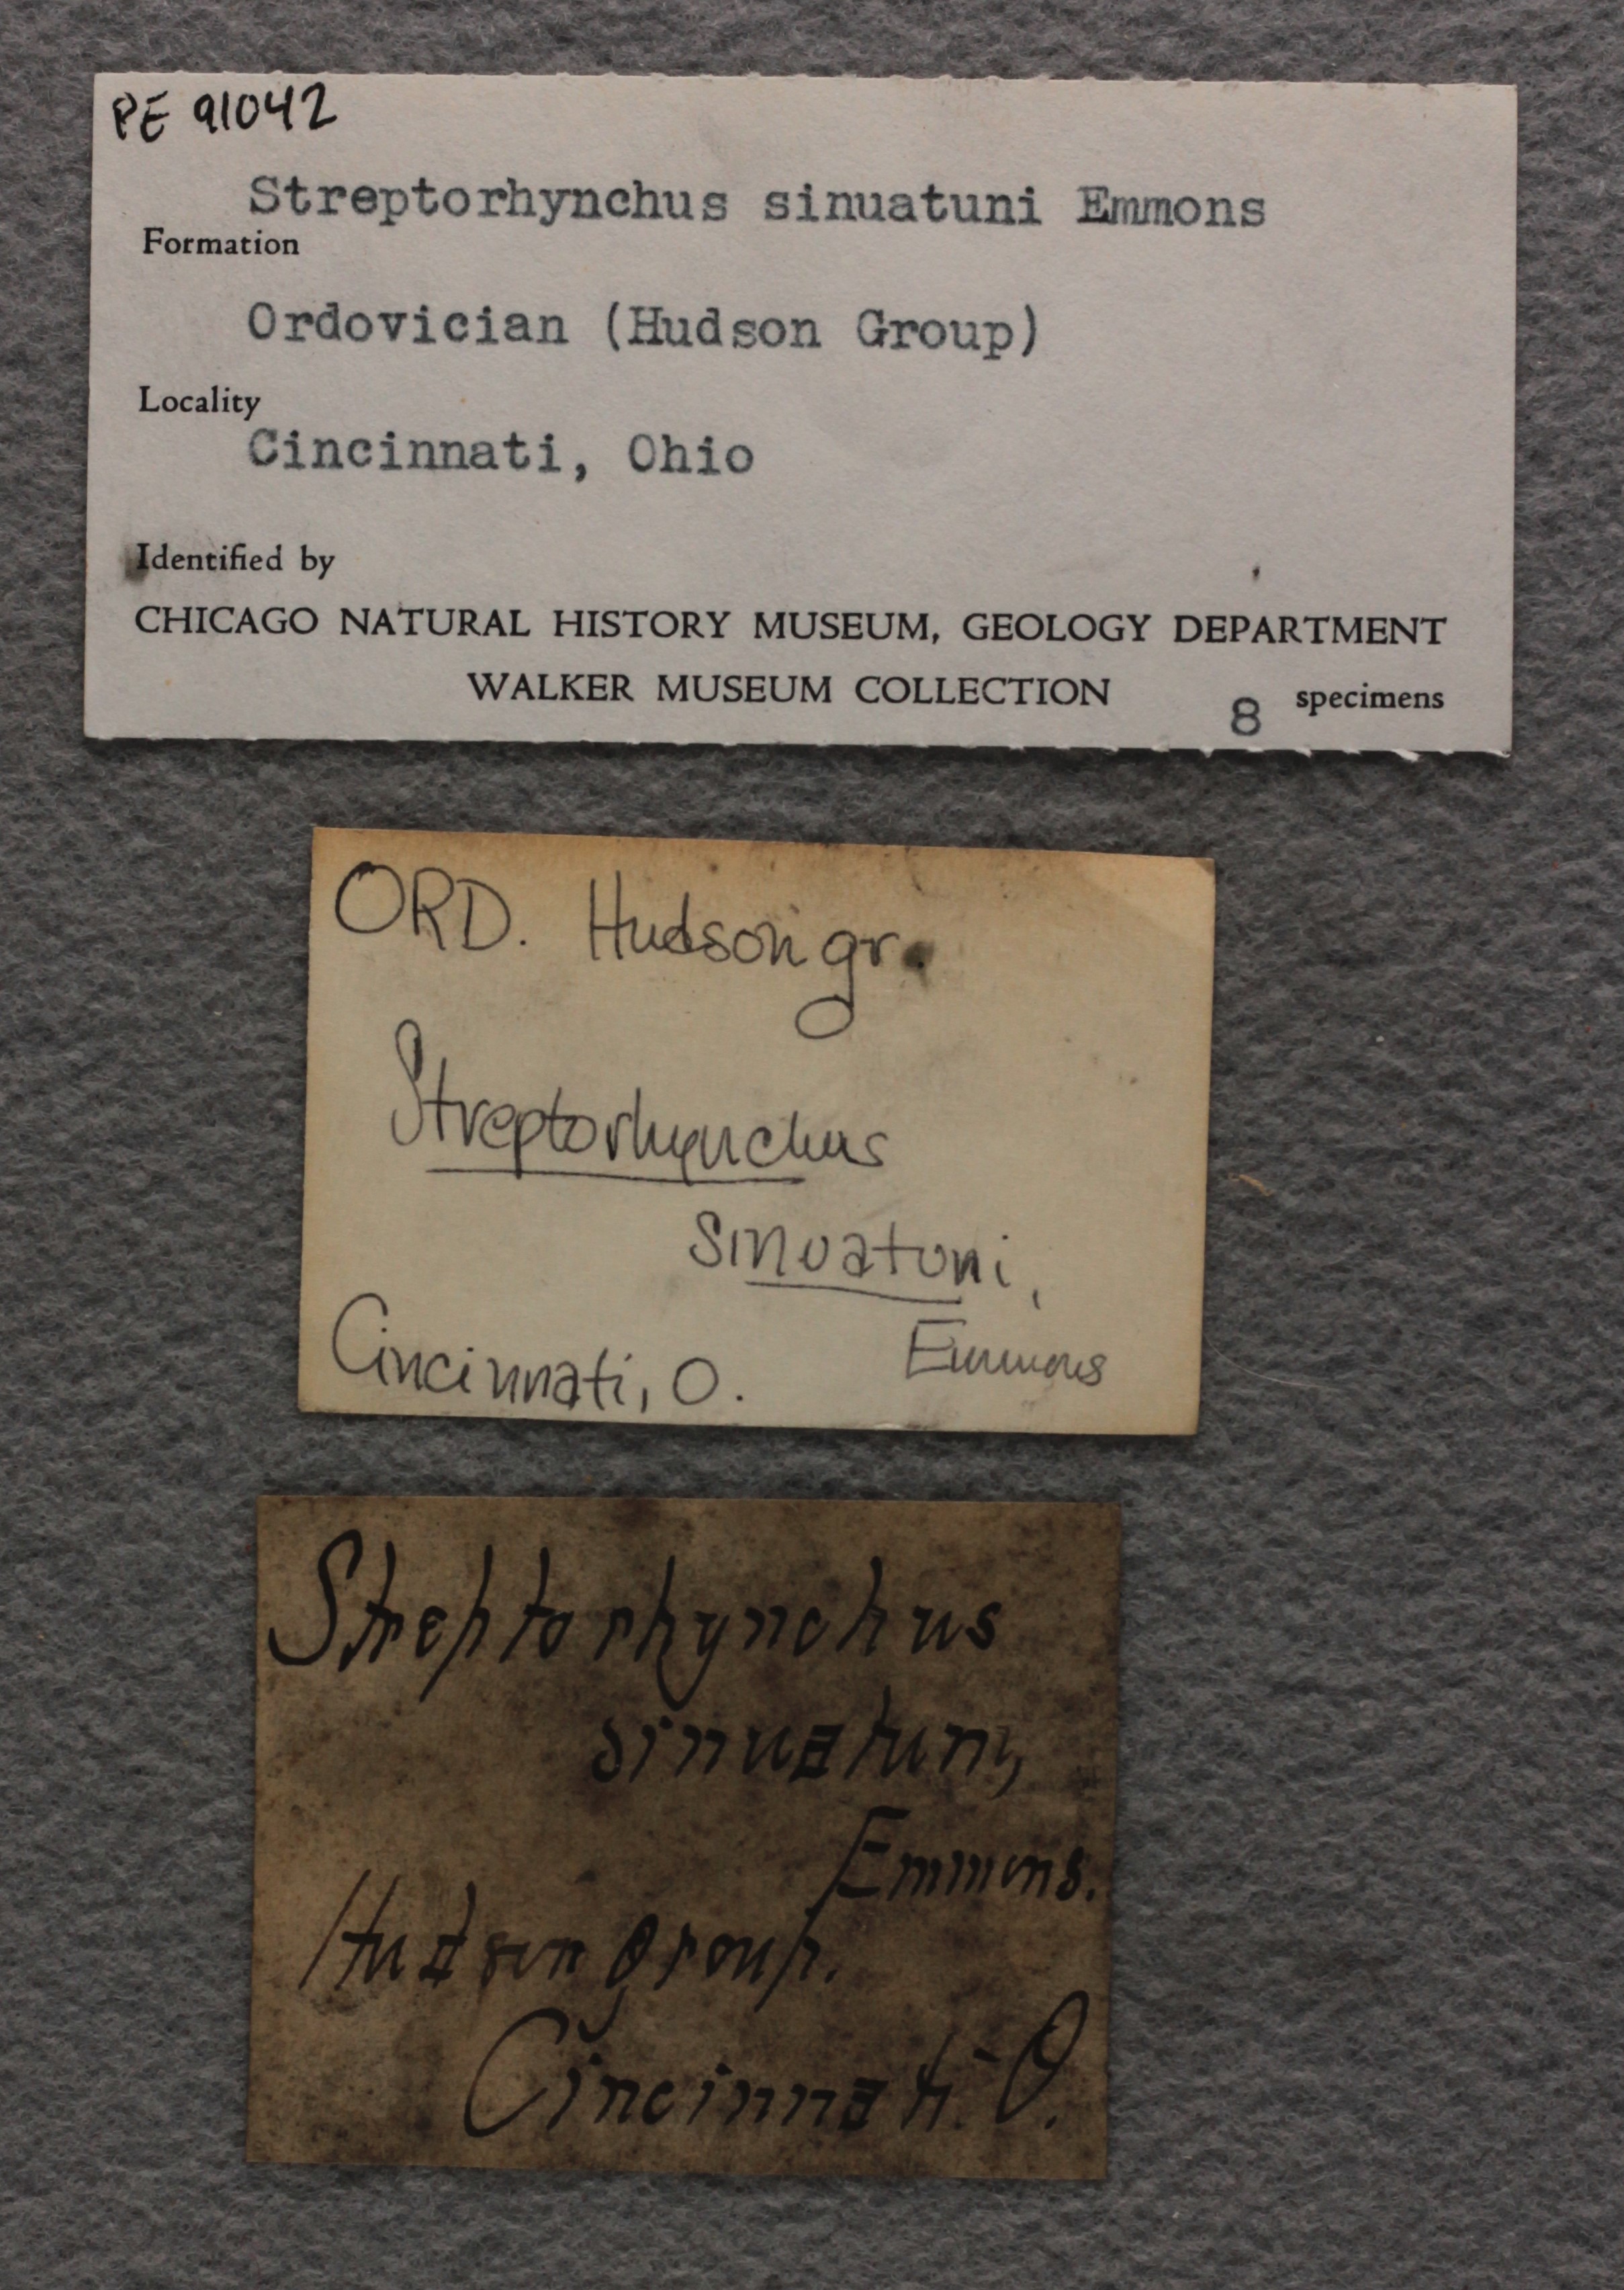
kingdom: Animalia
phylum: Brachiopoda
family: Streptorhynchidae
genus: Streptorhynchus
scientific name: Streptorhynchus Canavaria sinuata
